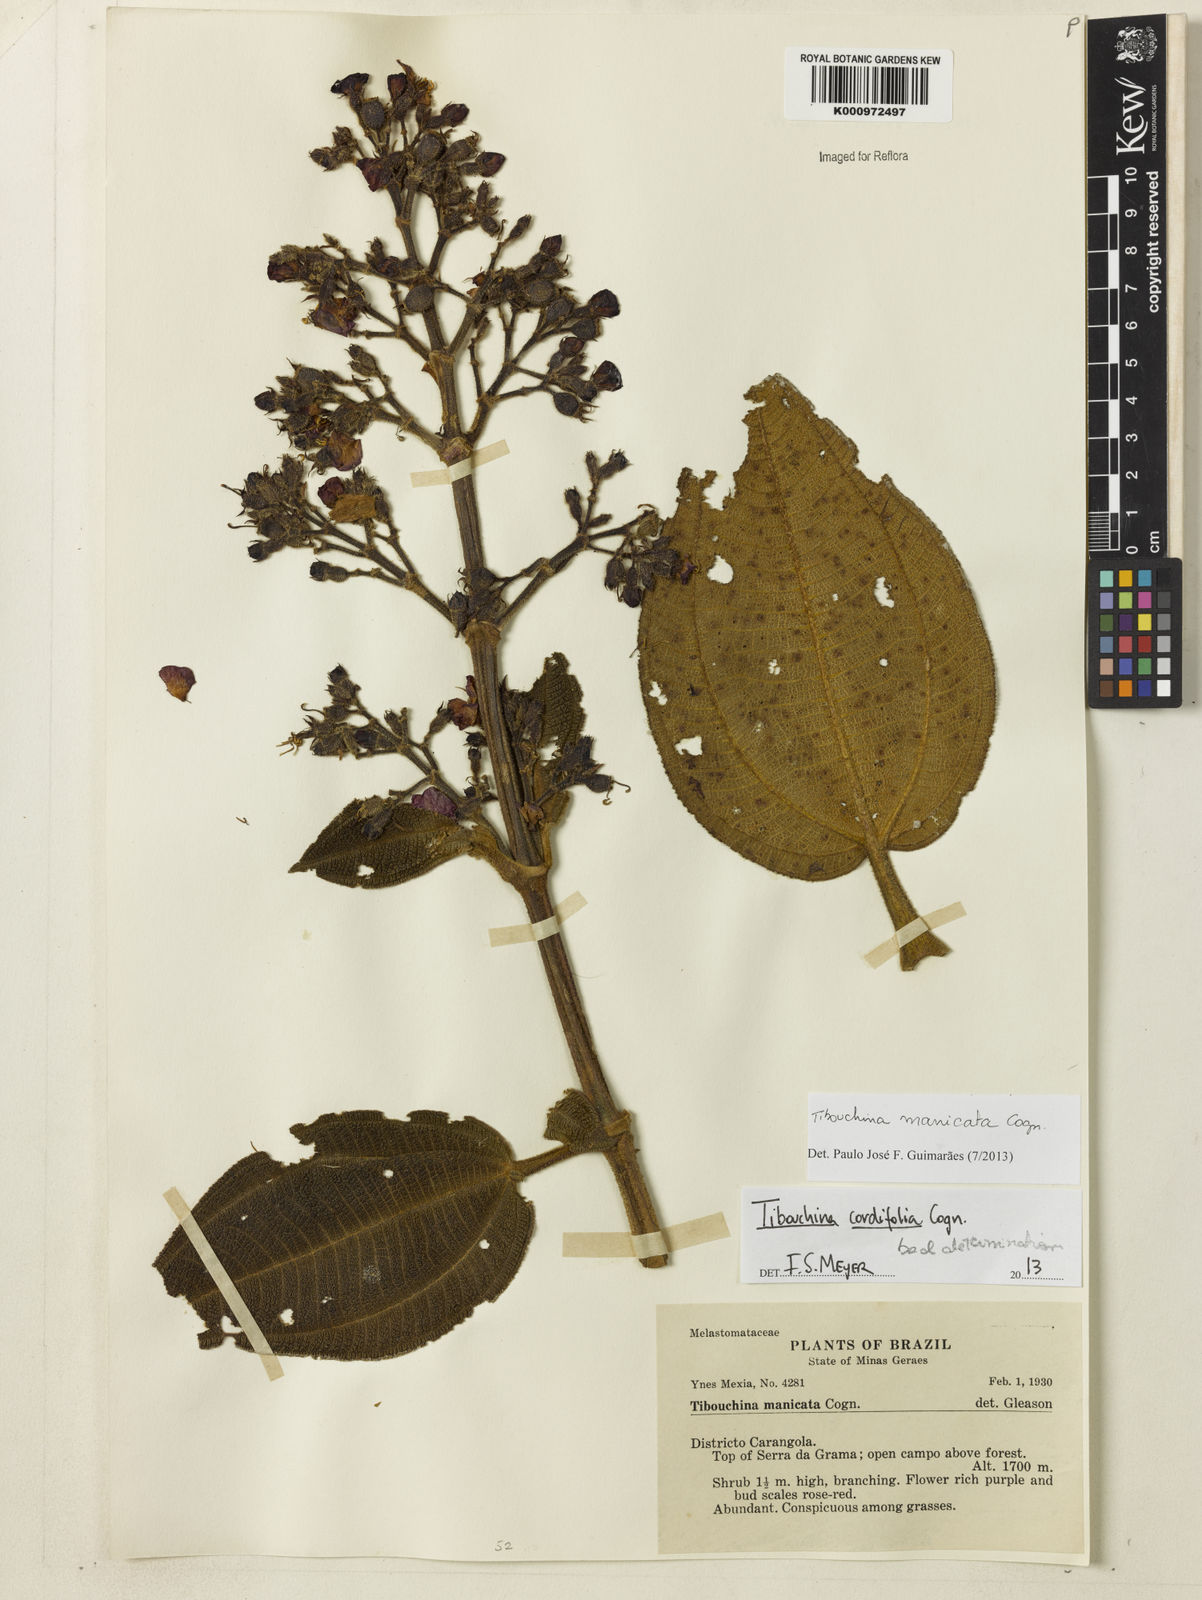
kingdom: Plantae
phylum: Tracheophyta
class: Magnoliopsida
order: Myrtales
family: Melastomataceae
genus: Pleroma
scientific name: Pleroma manicatum
